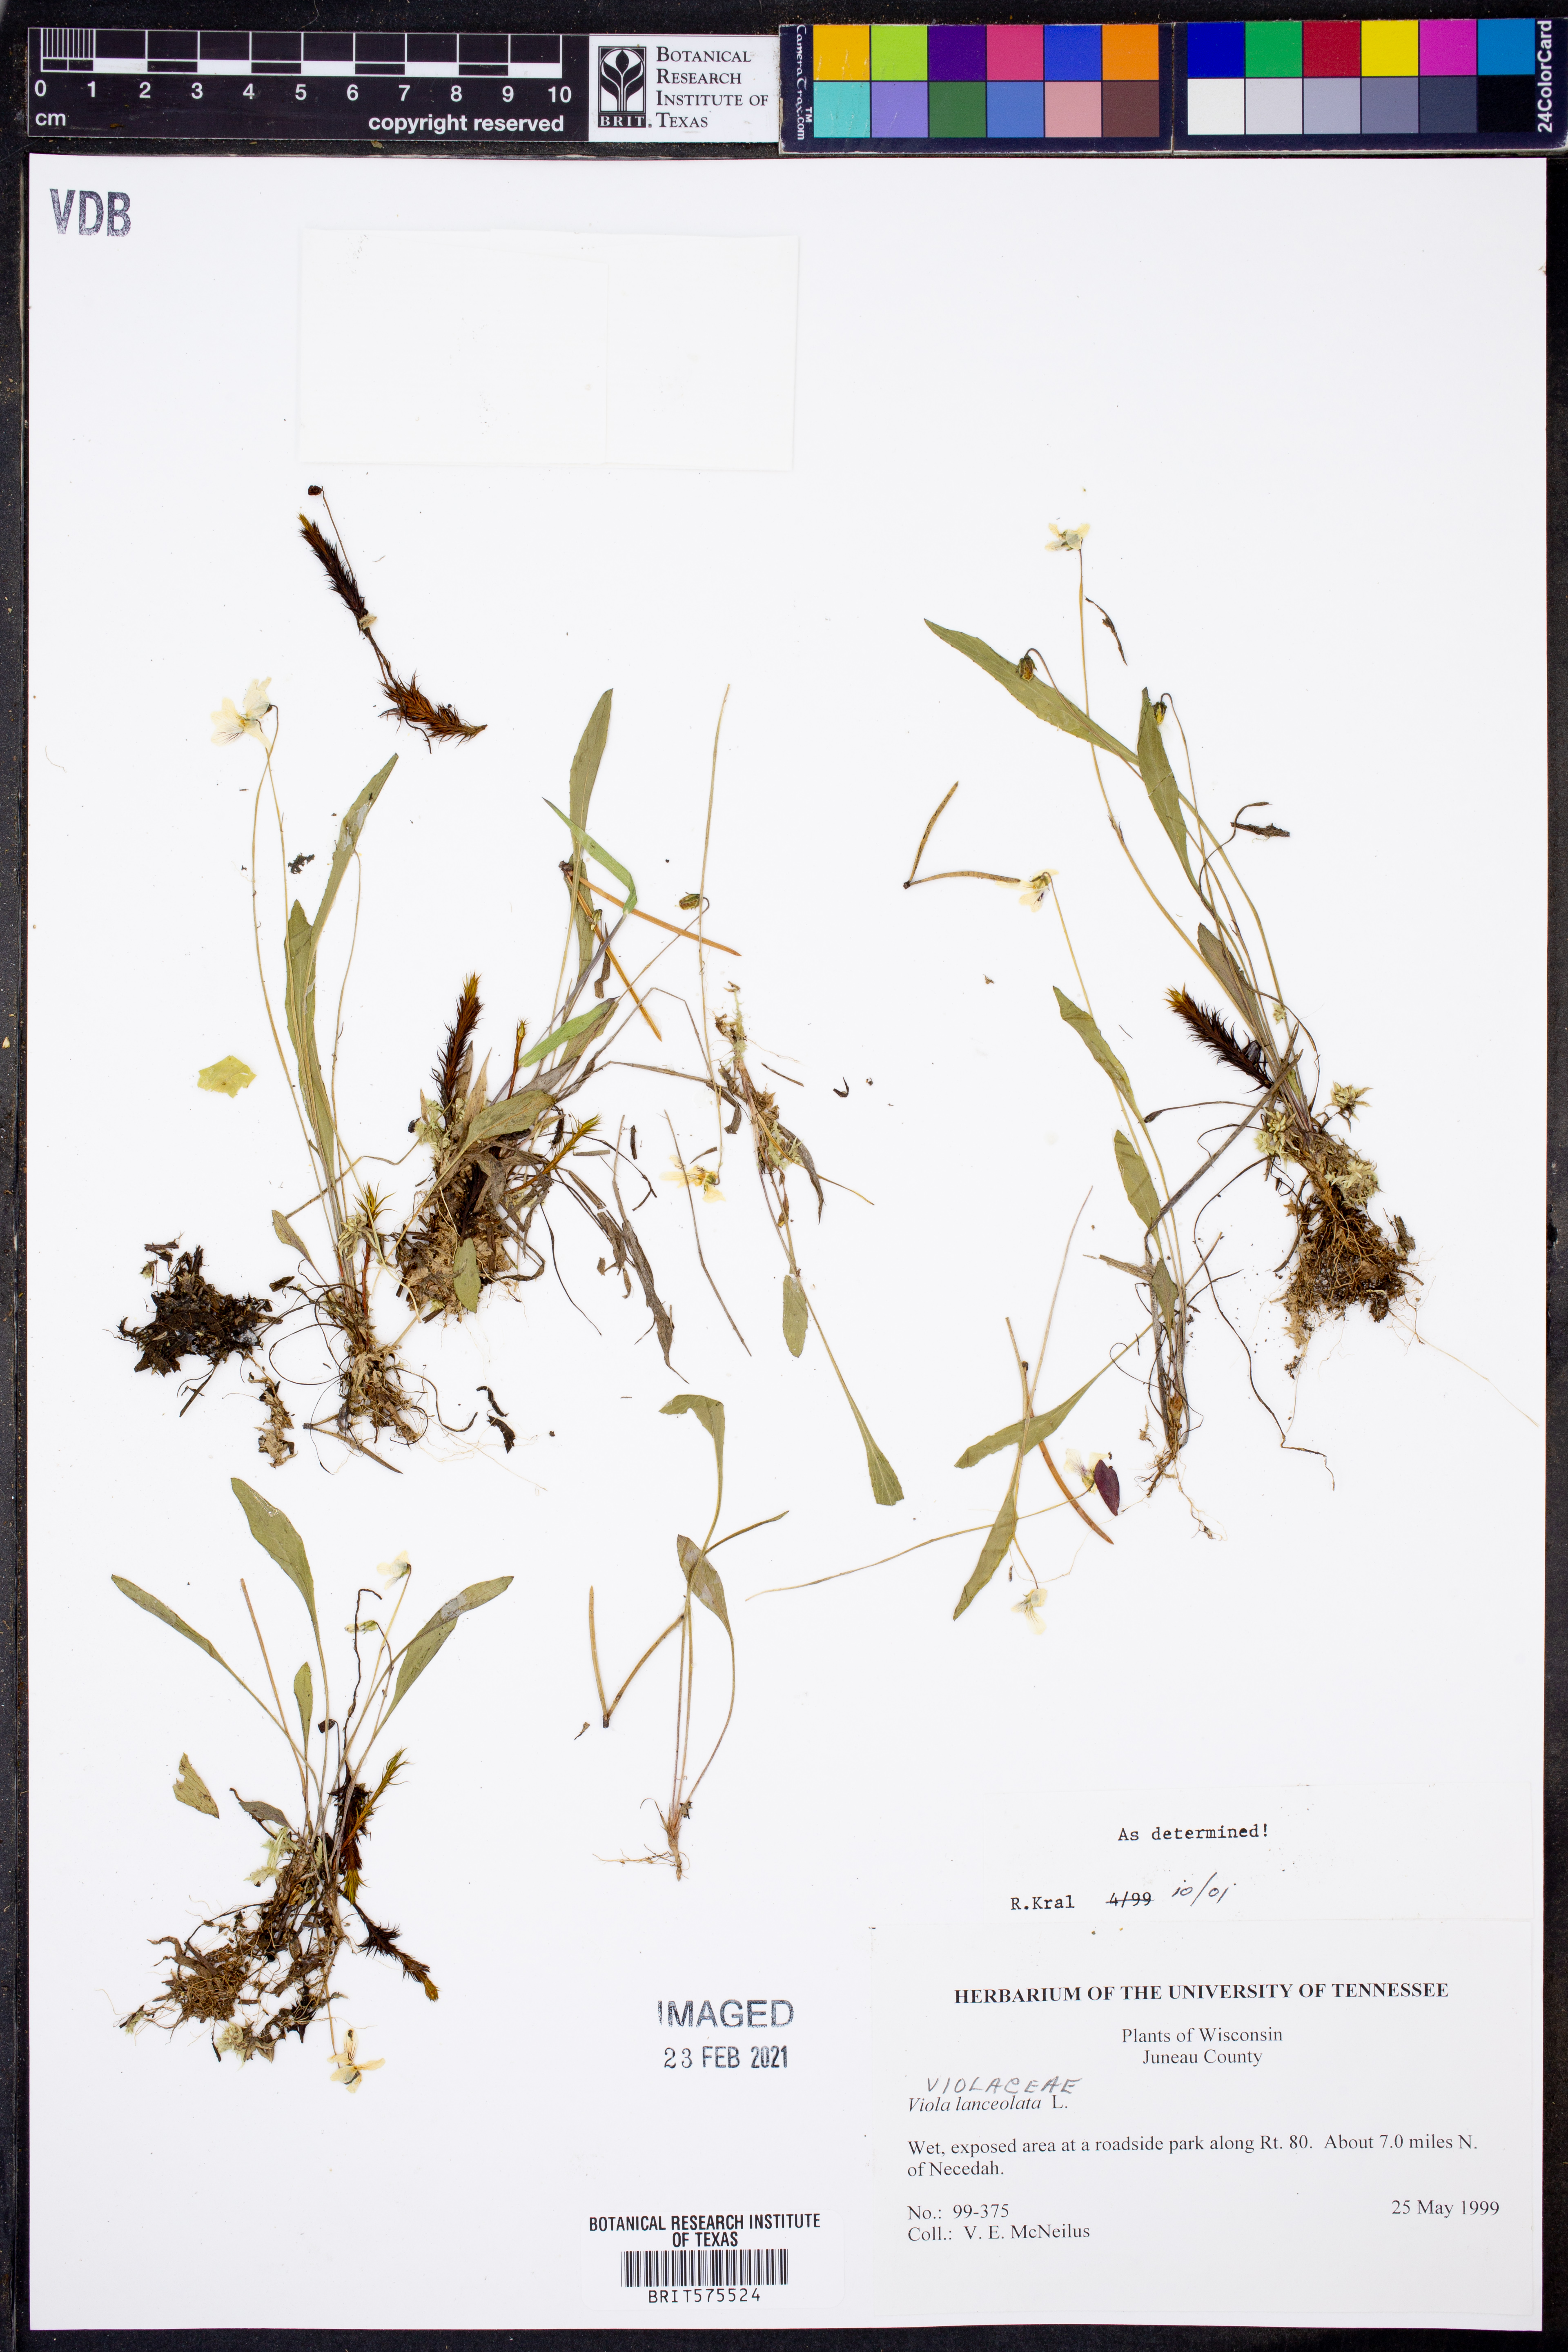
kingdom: Plantae
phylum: Tracheophyta
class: Magnoliopsida
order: Malpighiales
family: Violaceae
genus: Viola
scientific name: Viola lanceolata
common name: Bog white violet
